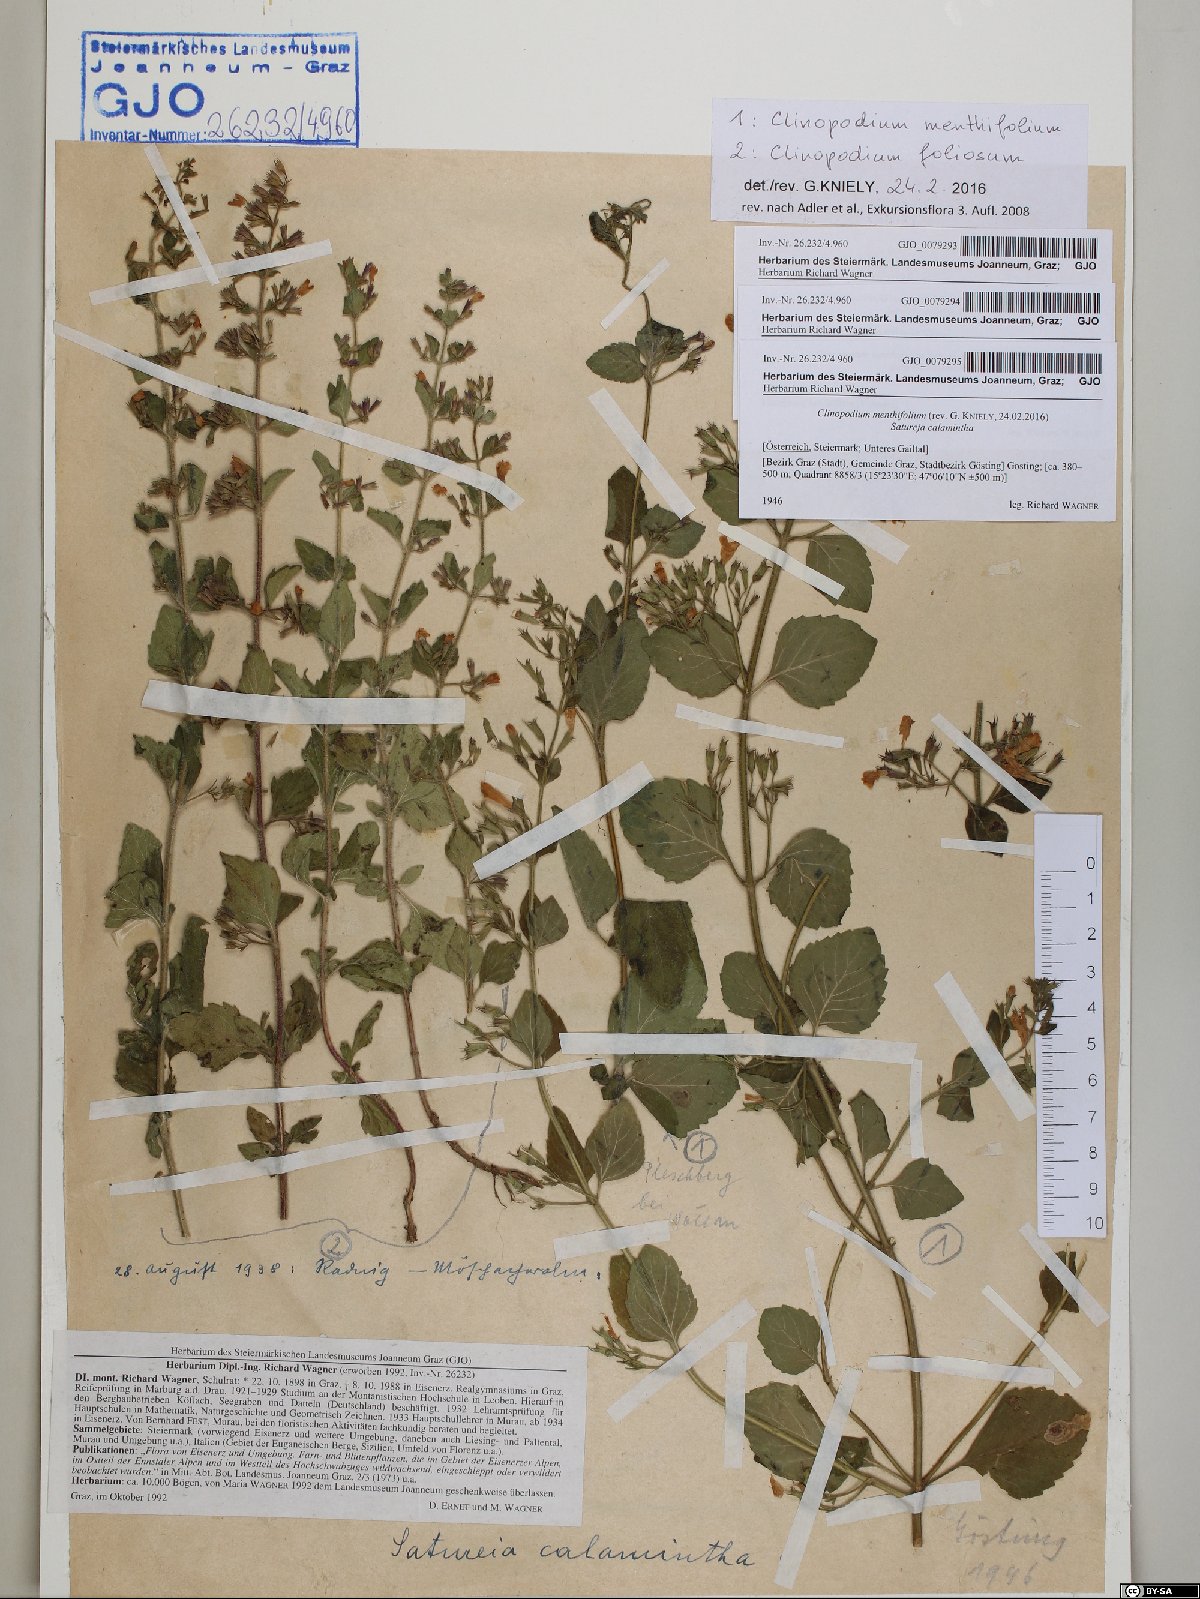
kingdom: Plantae
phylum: Tracheophyta
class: Magnoliopsida
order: Lamiales
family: Lamiaceae
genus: Clinopodium
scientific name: Clinopodium menthifolium
